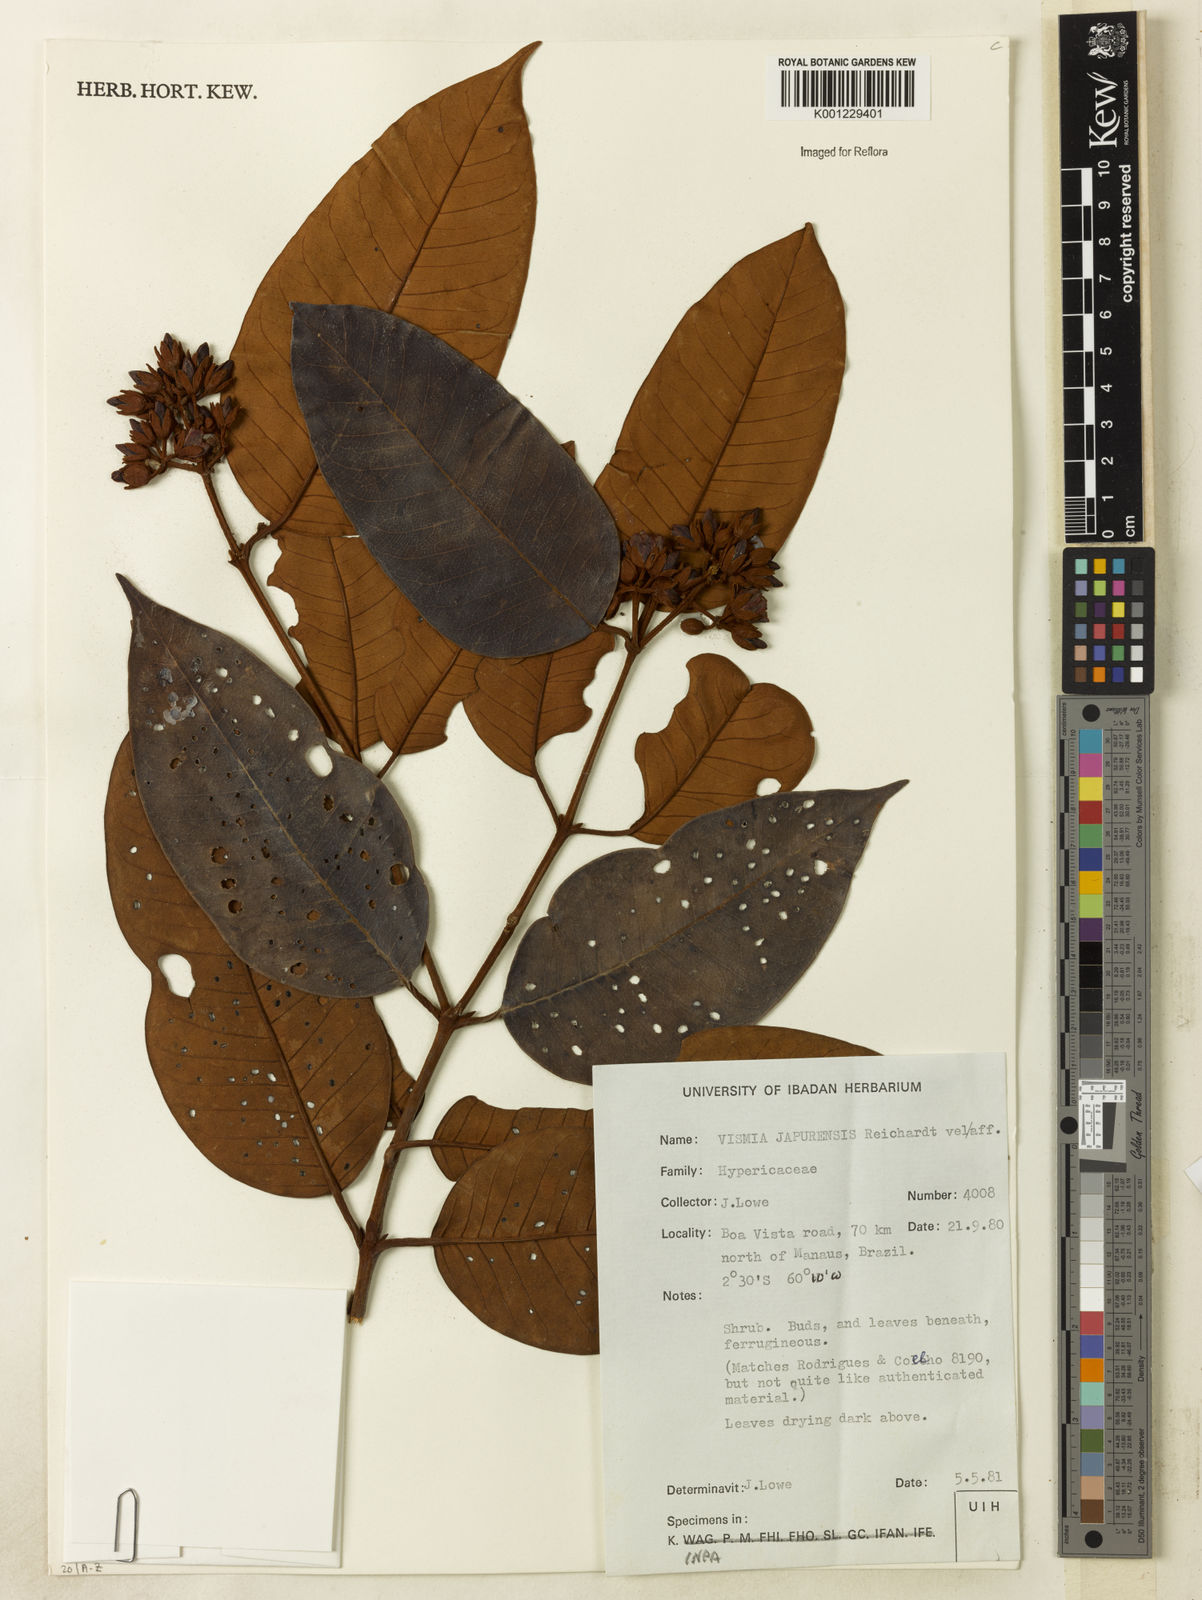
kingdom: Plantae
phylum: Tracheophyta
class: Magnoliopsida
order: Malpighiales
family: Hypericaceae
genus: Vismia
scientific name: Vismia ferruginea
